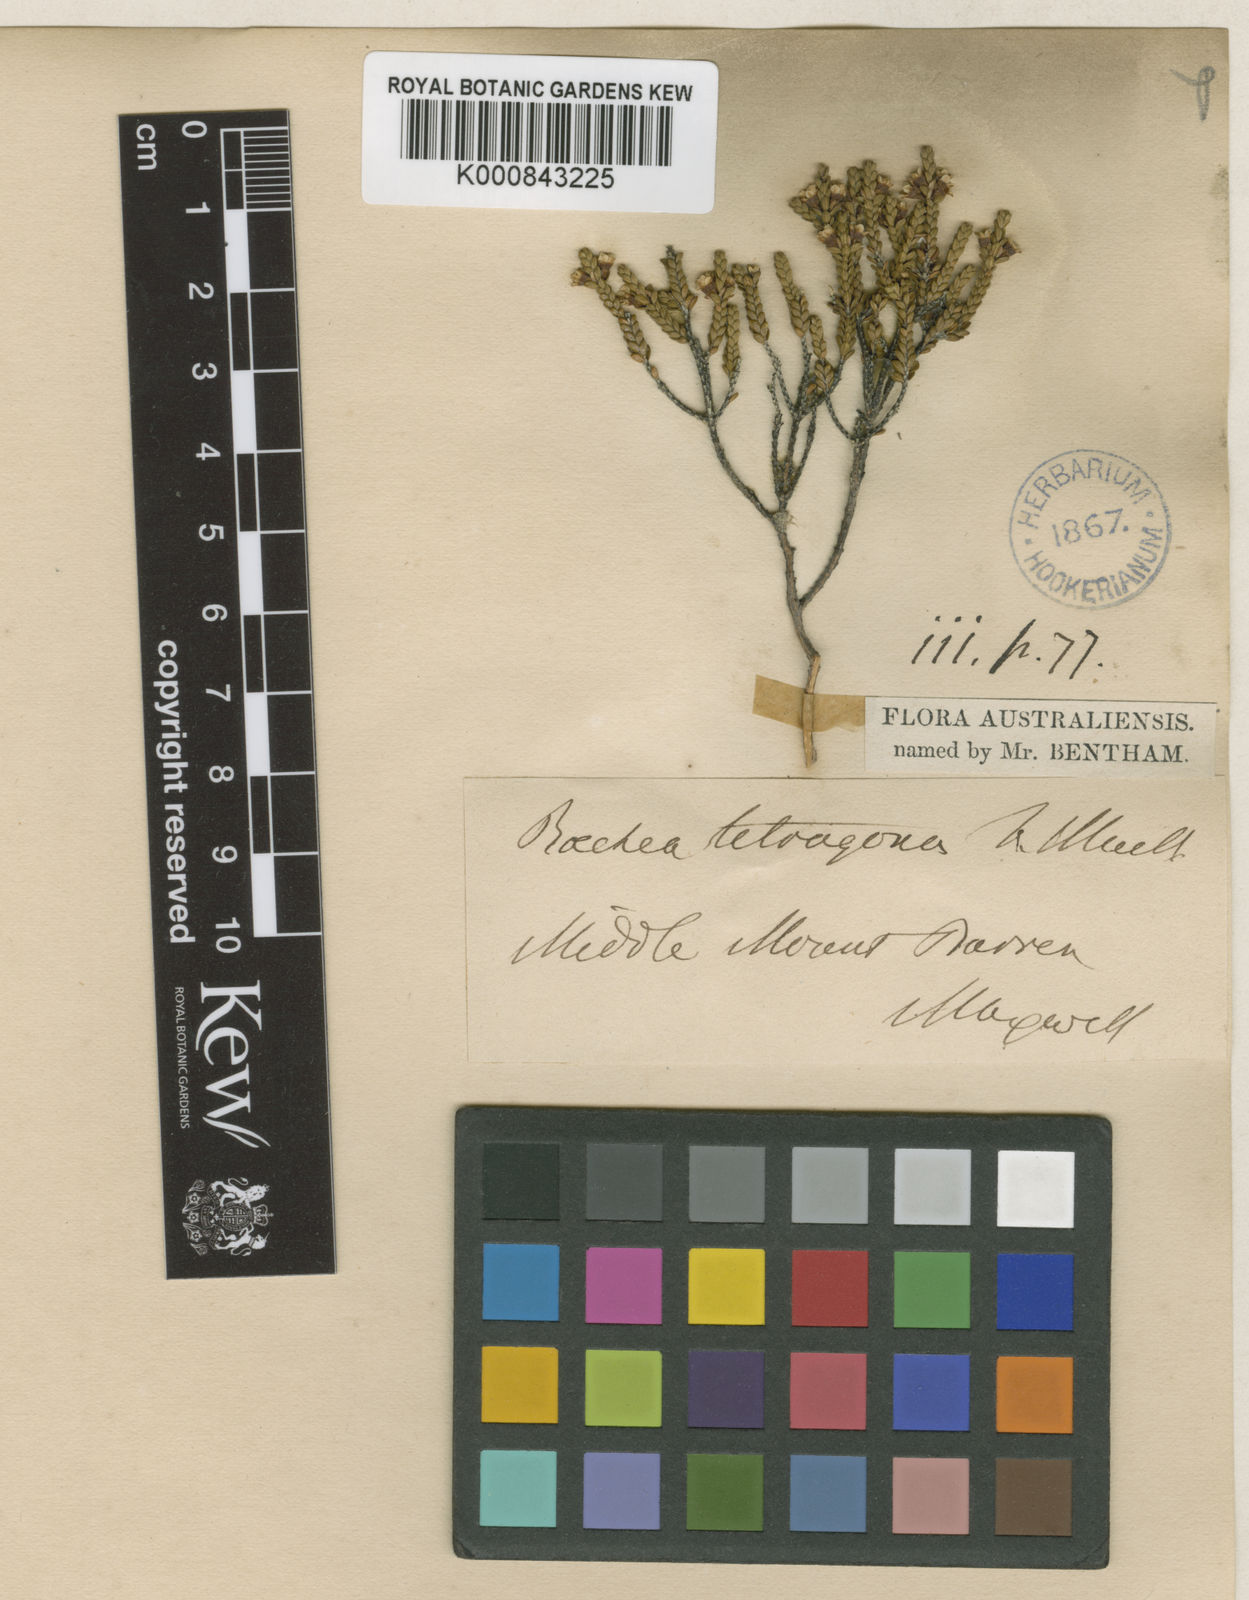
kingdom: Plantae
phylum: Tracheophyta
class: Magnoliopsida
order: Myrtales
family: Myrtaceae
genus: Astus
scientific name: Astus tetragonus
